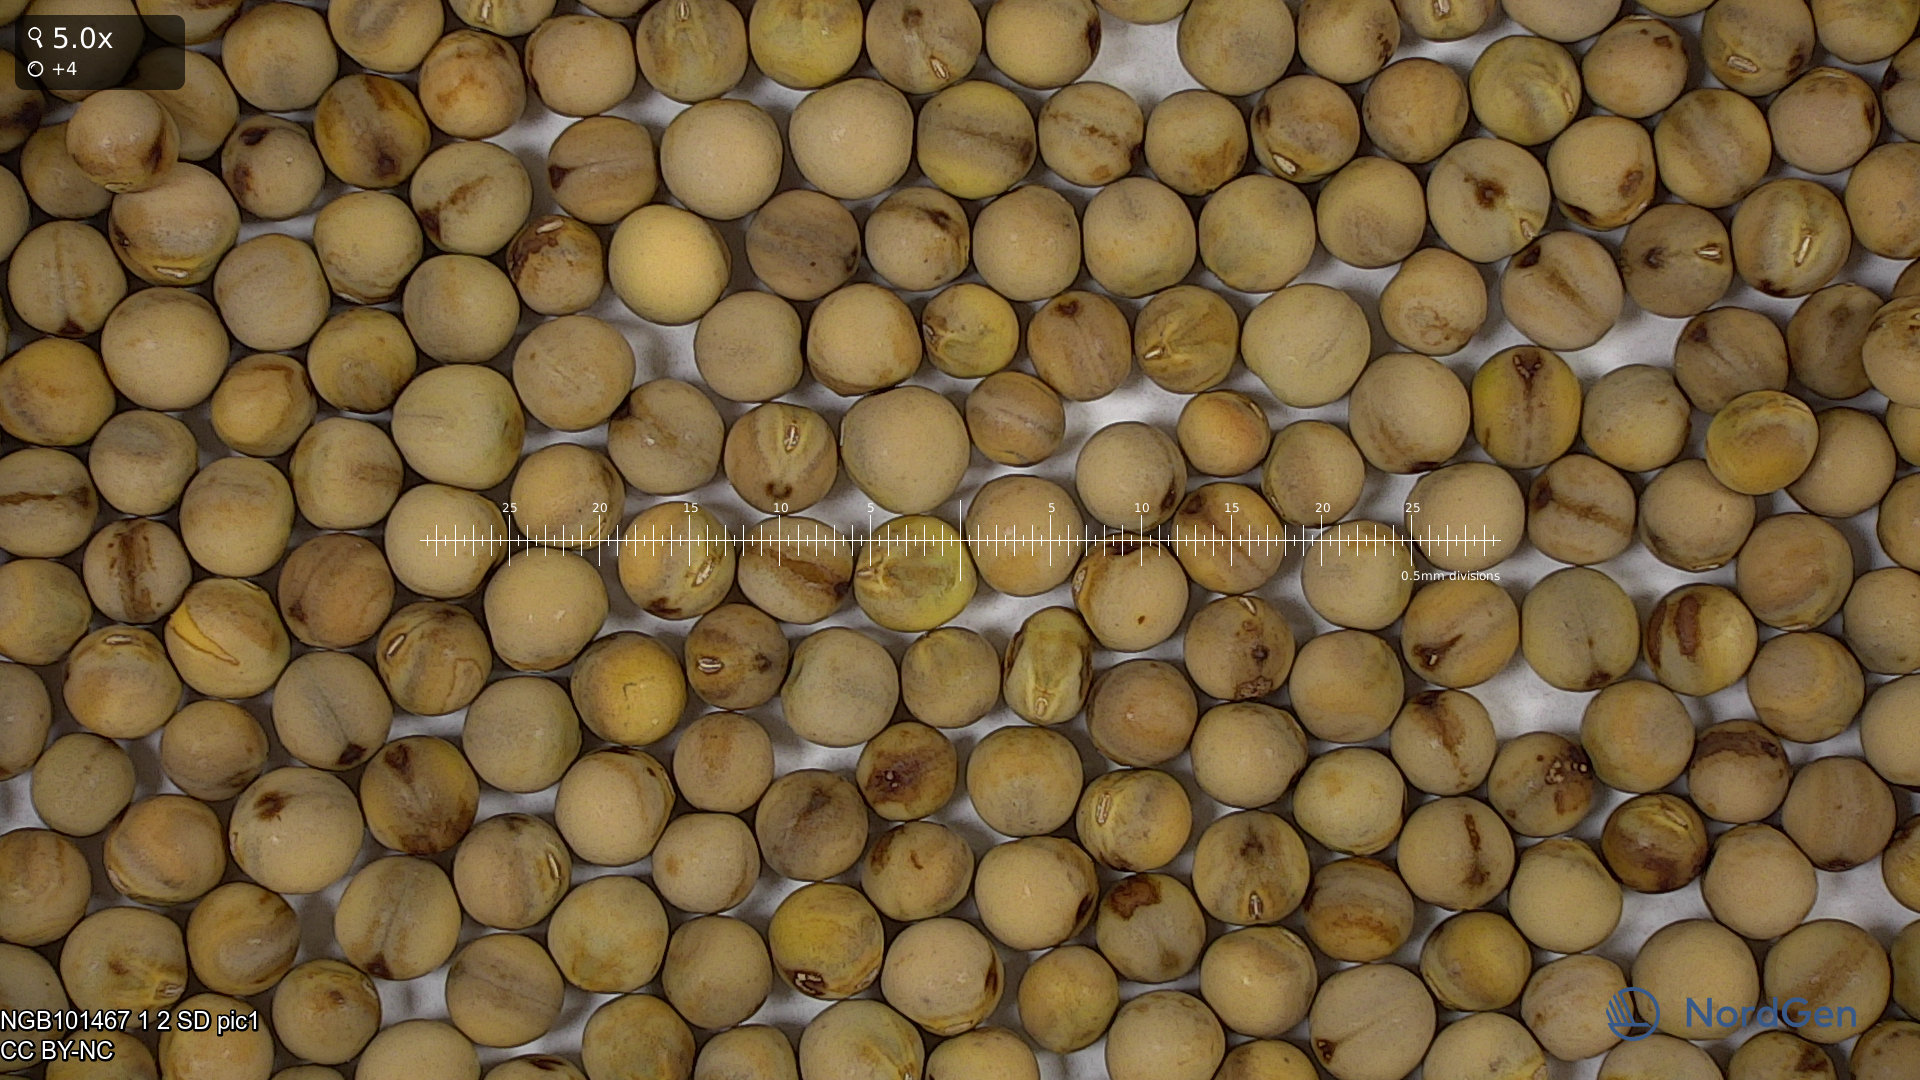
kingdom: Plantae
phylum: Tracheophyta
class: Magnoliopsida
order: Fabales
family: Fabaceae
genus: Lathyrus
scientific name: Lathyrus oleraceus
